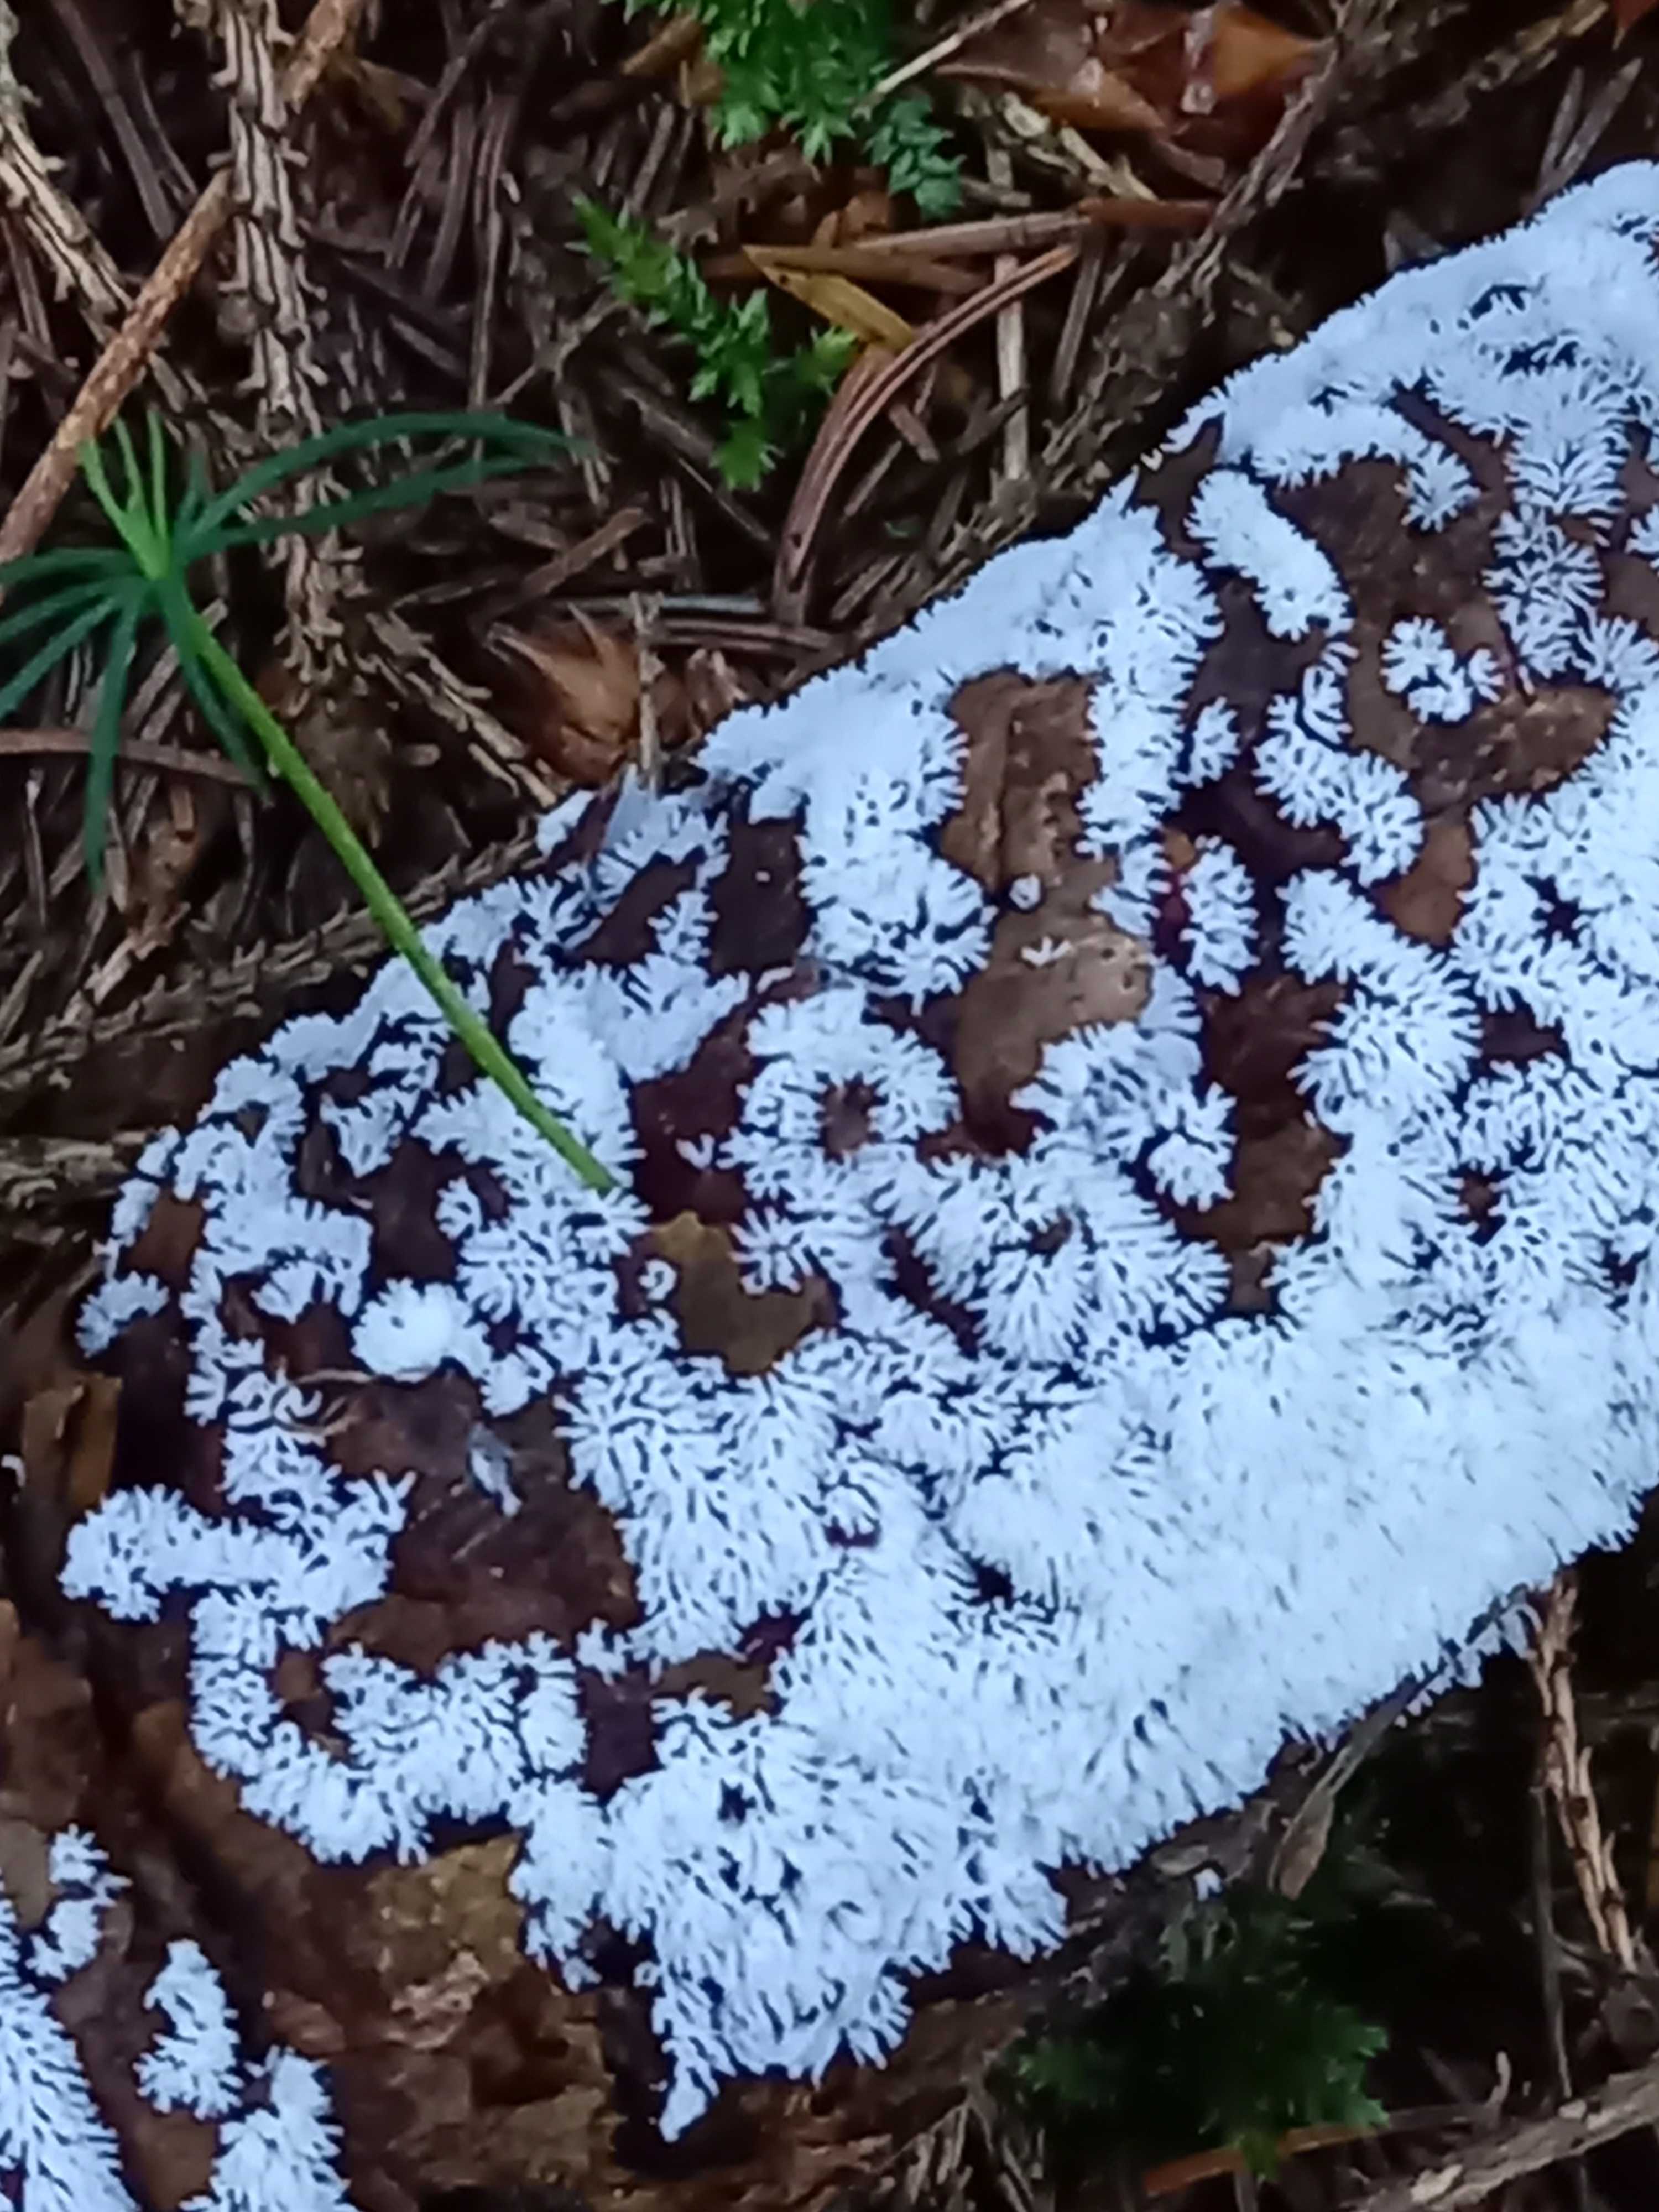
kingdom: Protozoa
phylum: Mycetozoa
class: Protosteliomycetes
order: Ceratiomyxales
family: Ceratiomyxaceae
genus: Ceratiomyxa
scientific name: Ceratiomyxa fruticulosa
